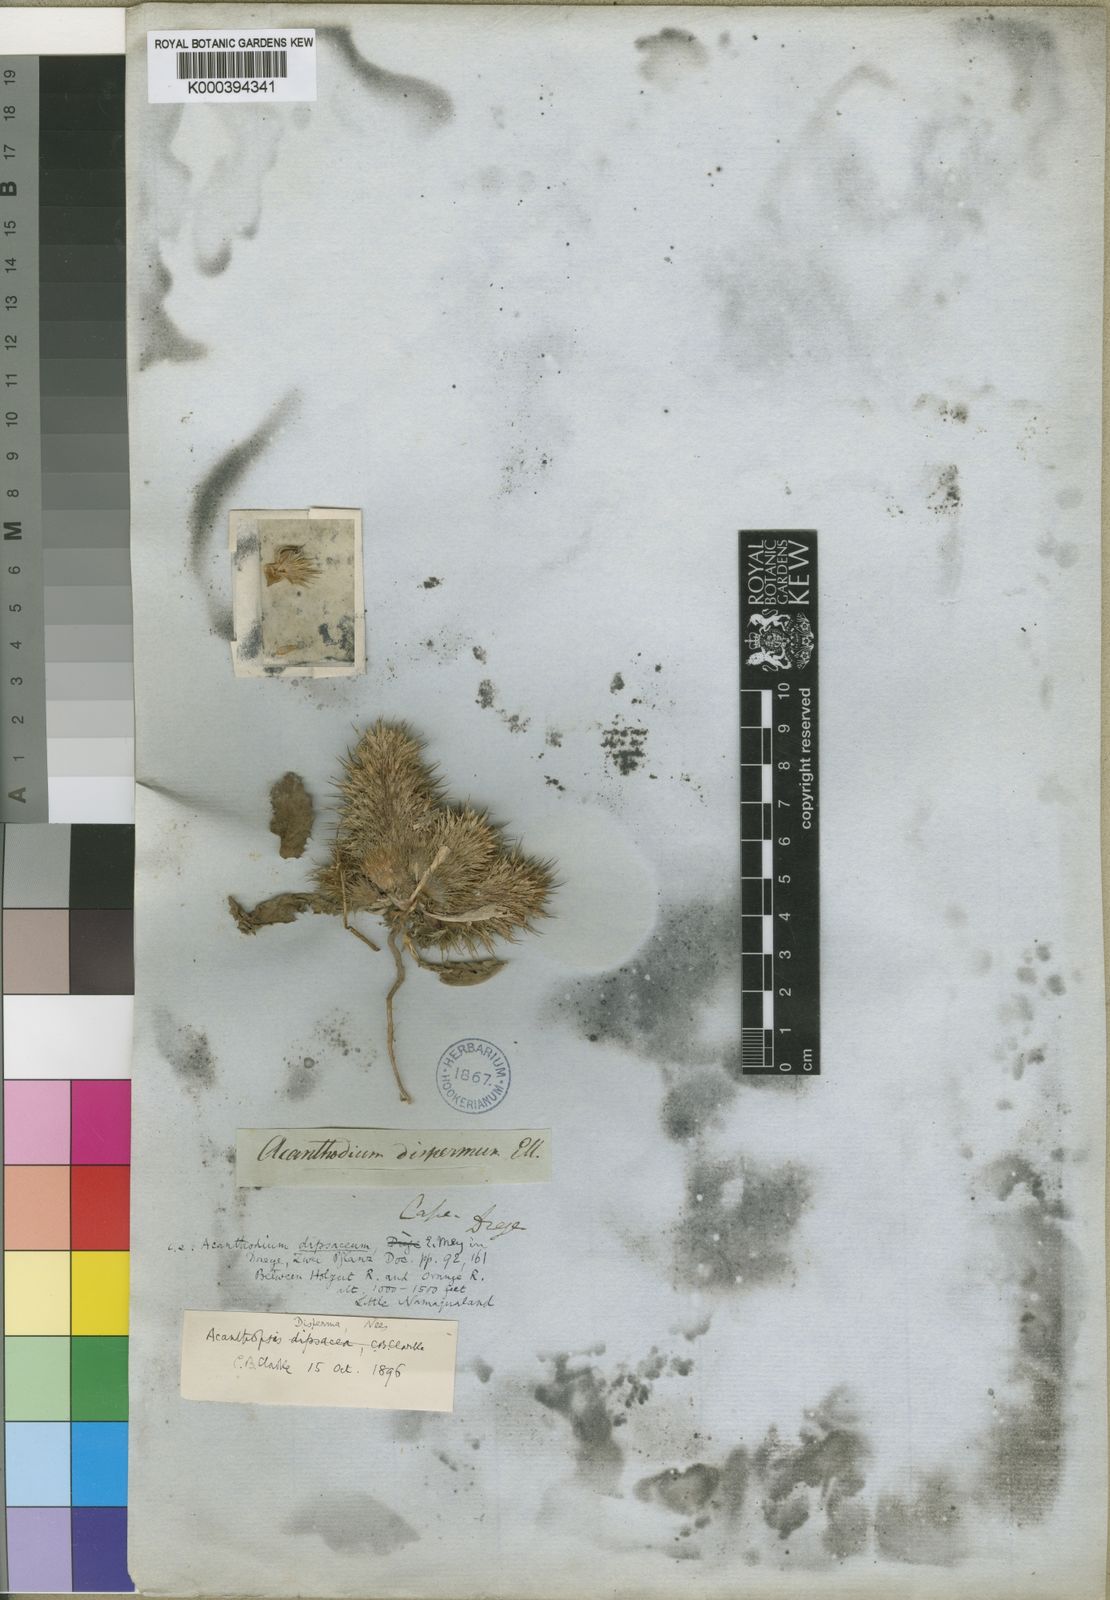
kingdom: Plantae
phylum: Tracheophyta
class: Magnoliopsida
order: Lamiales
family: Acanthaceae
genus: Acanthopsis
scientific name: Acanthopsis disperma
